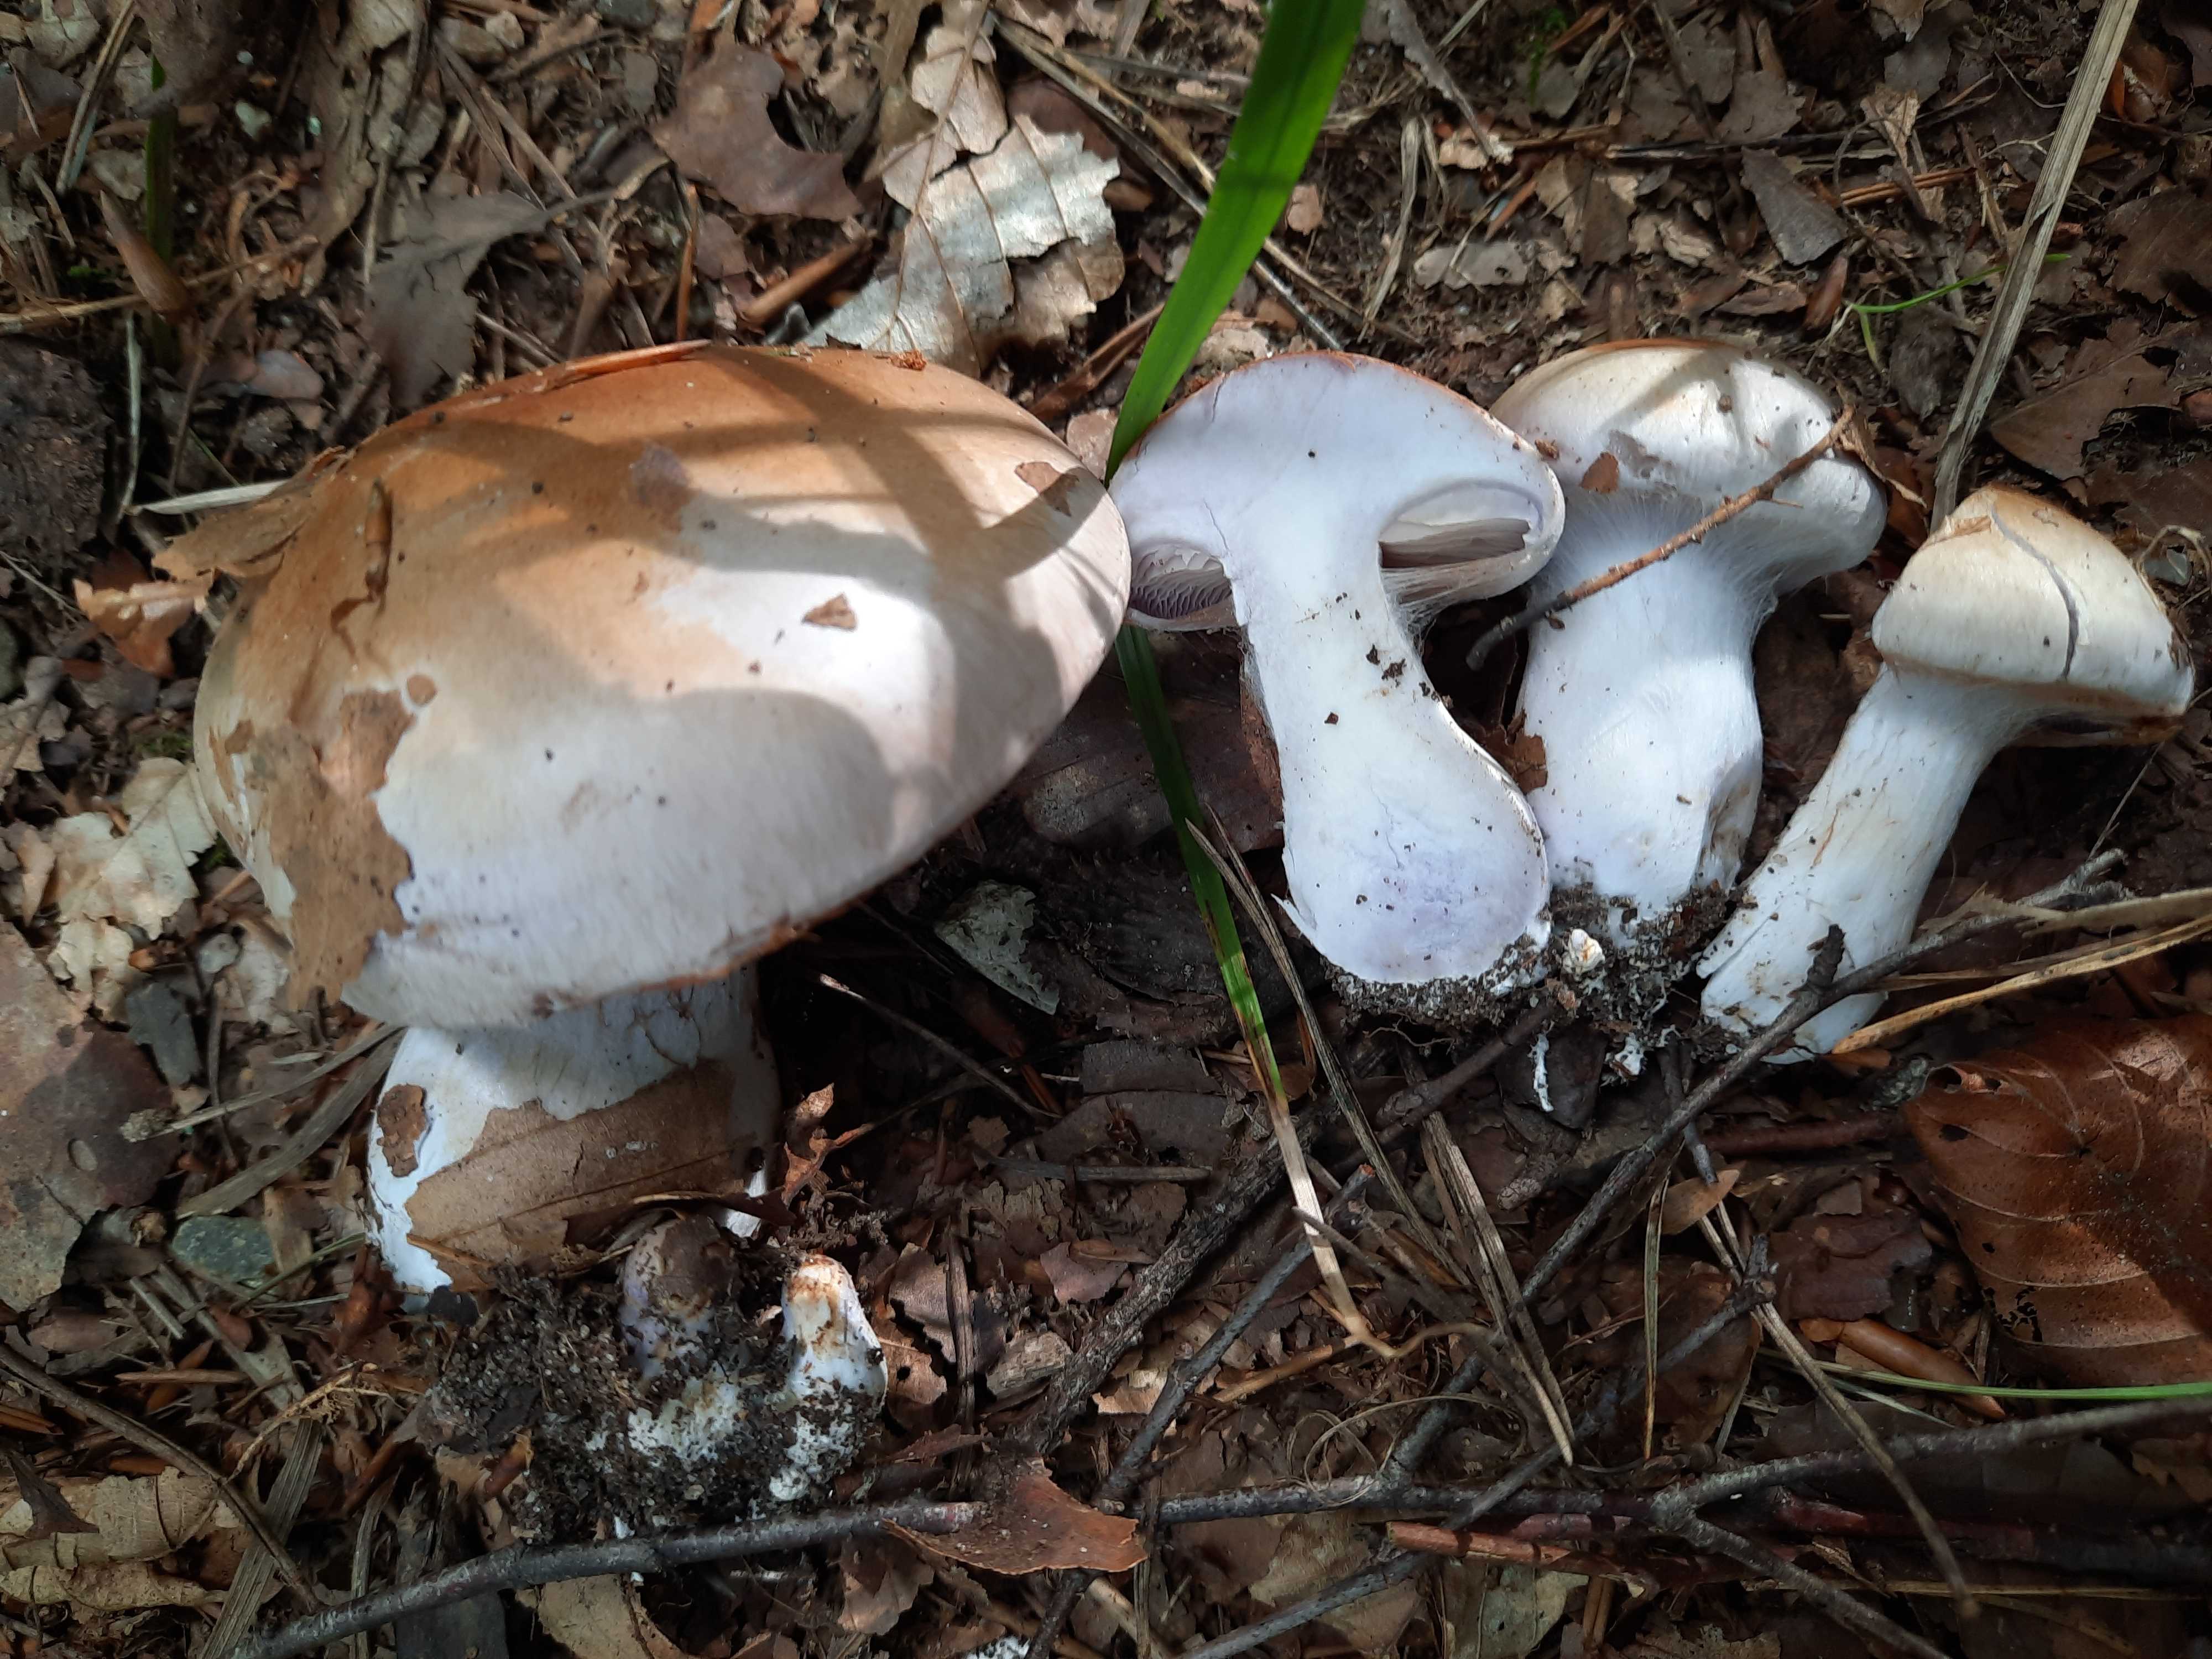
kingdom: Fungi
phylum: Basidiomycota
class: Agaricomycetes
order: Agaricales
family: Cortinariaceae
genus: Cortinarius
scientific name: Cortinarius largus
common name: violetrandet slørhat
